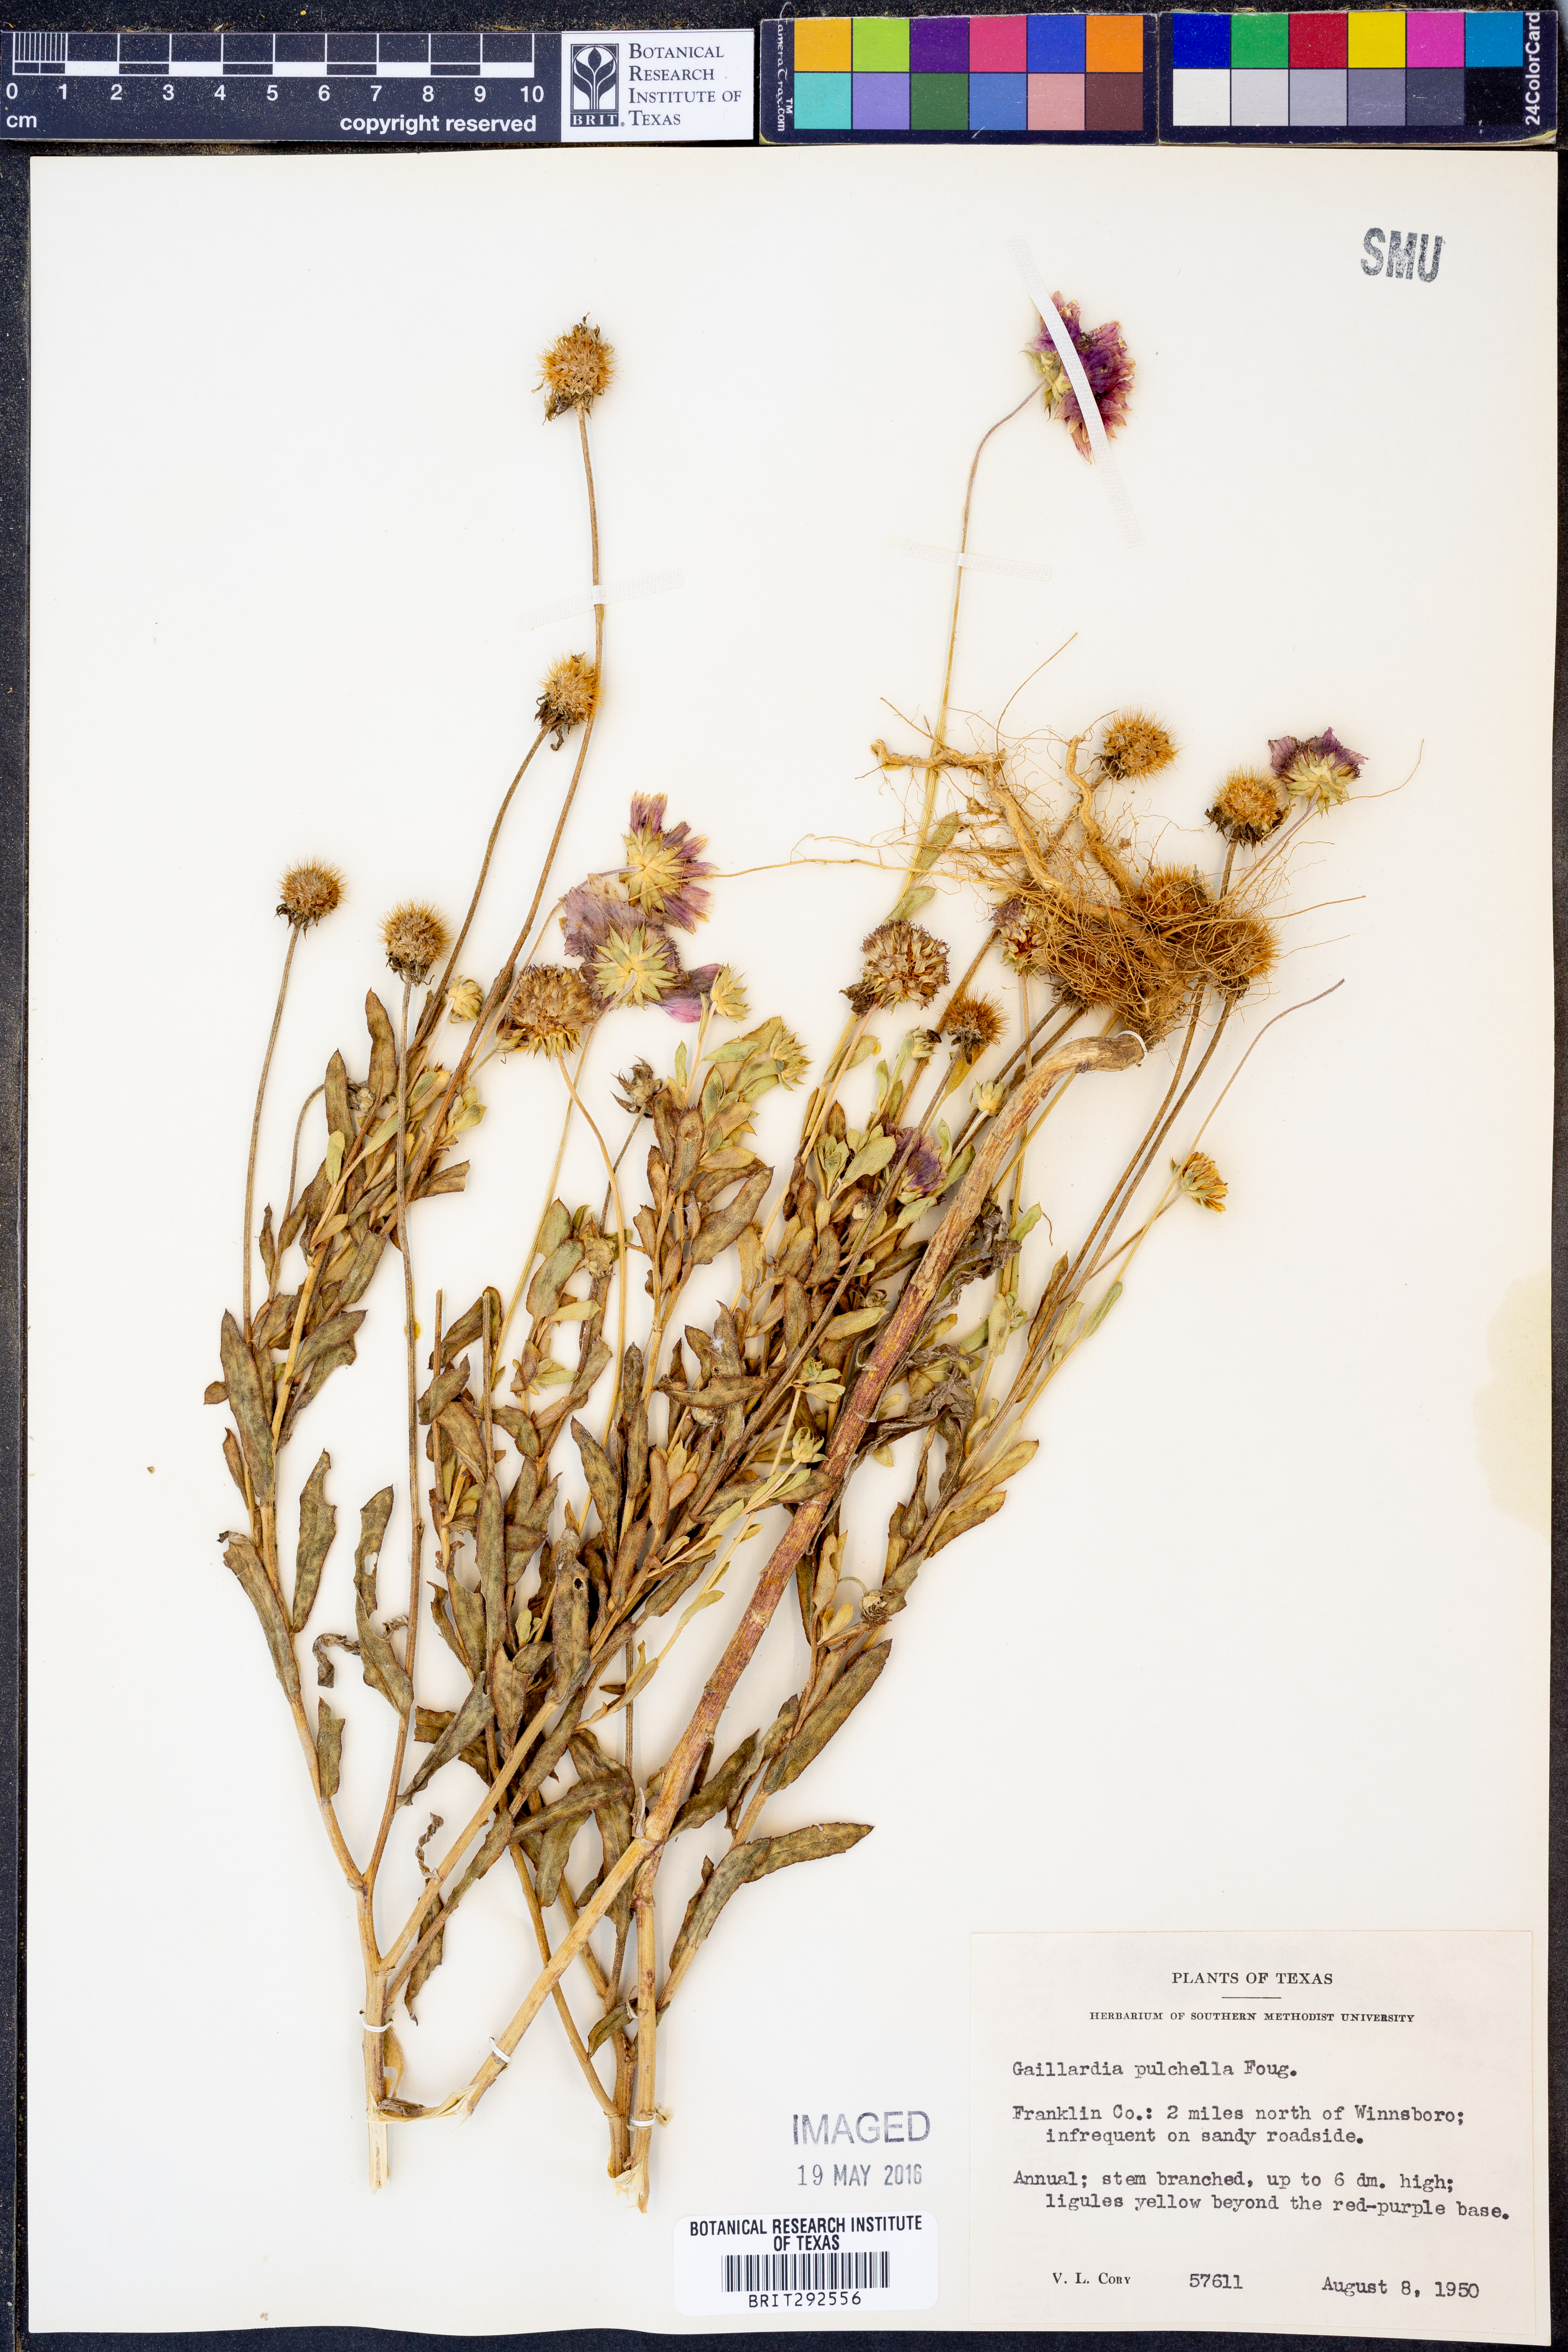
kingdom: Plantae
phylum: Tracheophyta
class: Magnoliopsida
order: Asterales
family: Asteraceae
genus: Gaillardia
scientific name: Gaillardia pulchella
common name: Firewheel
